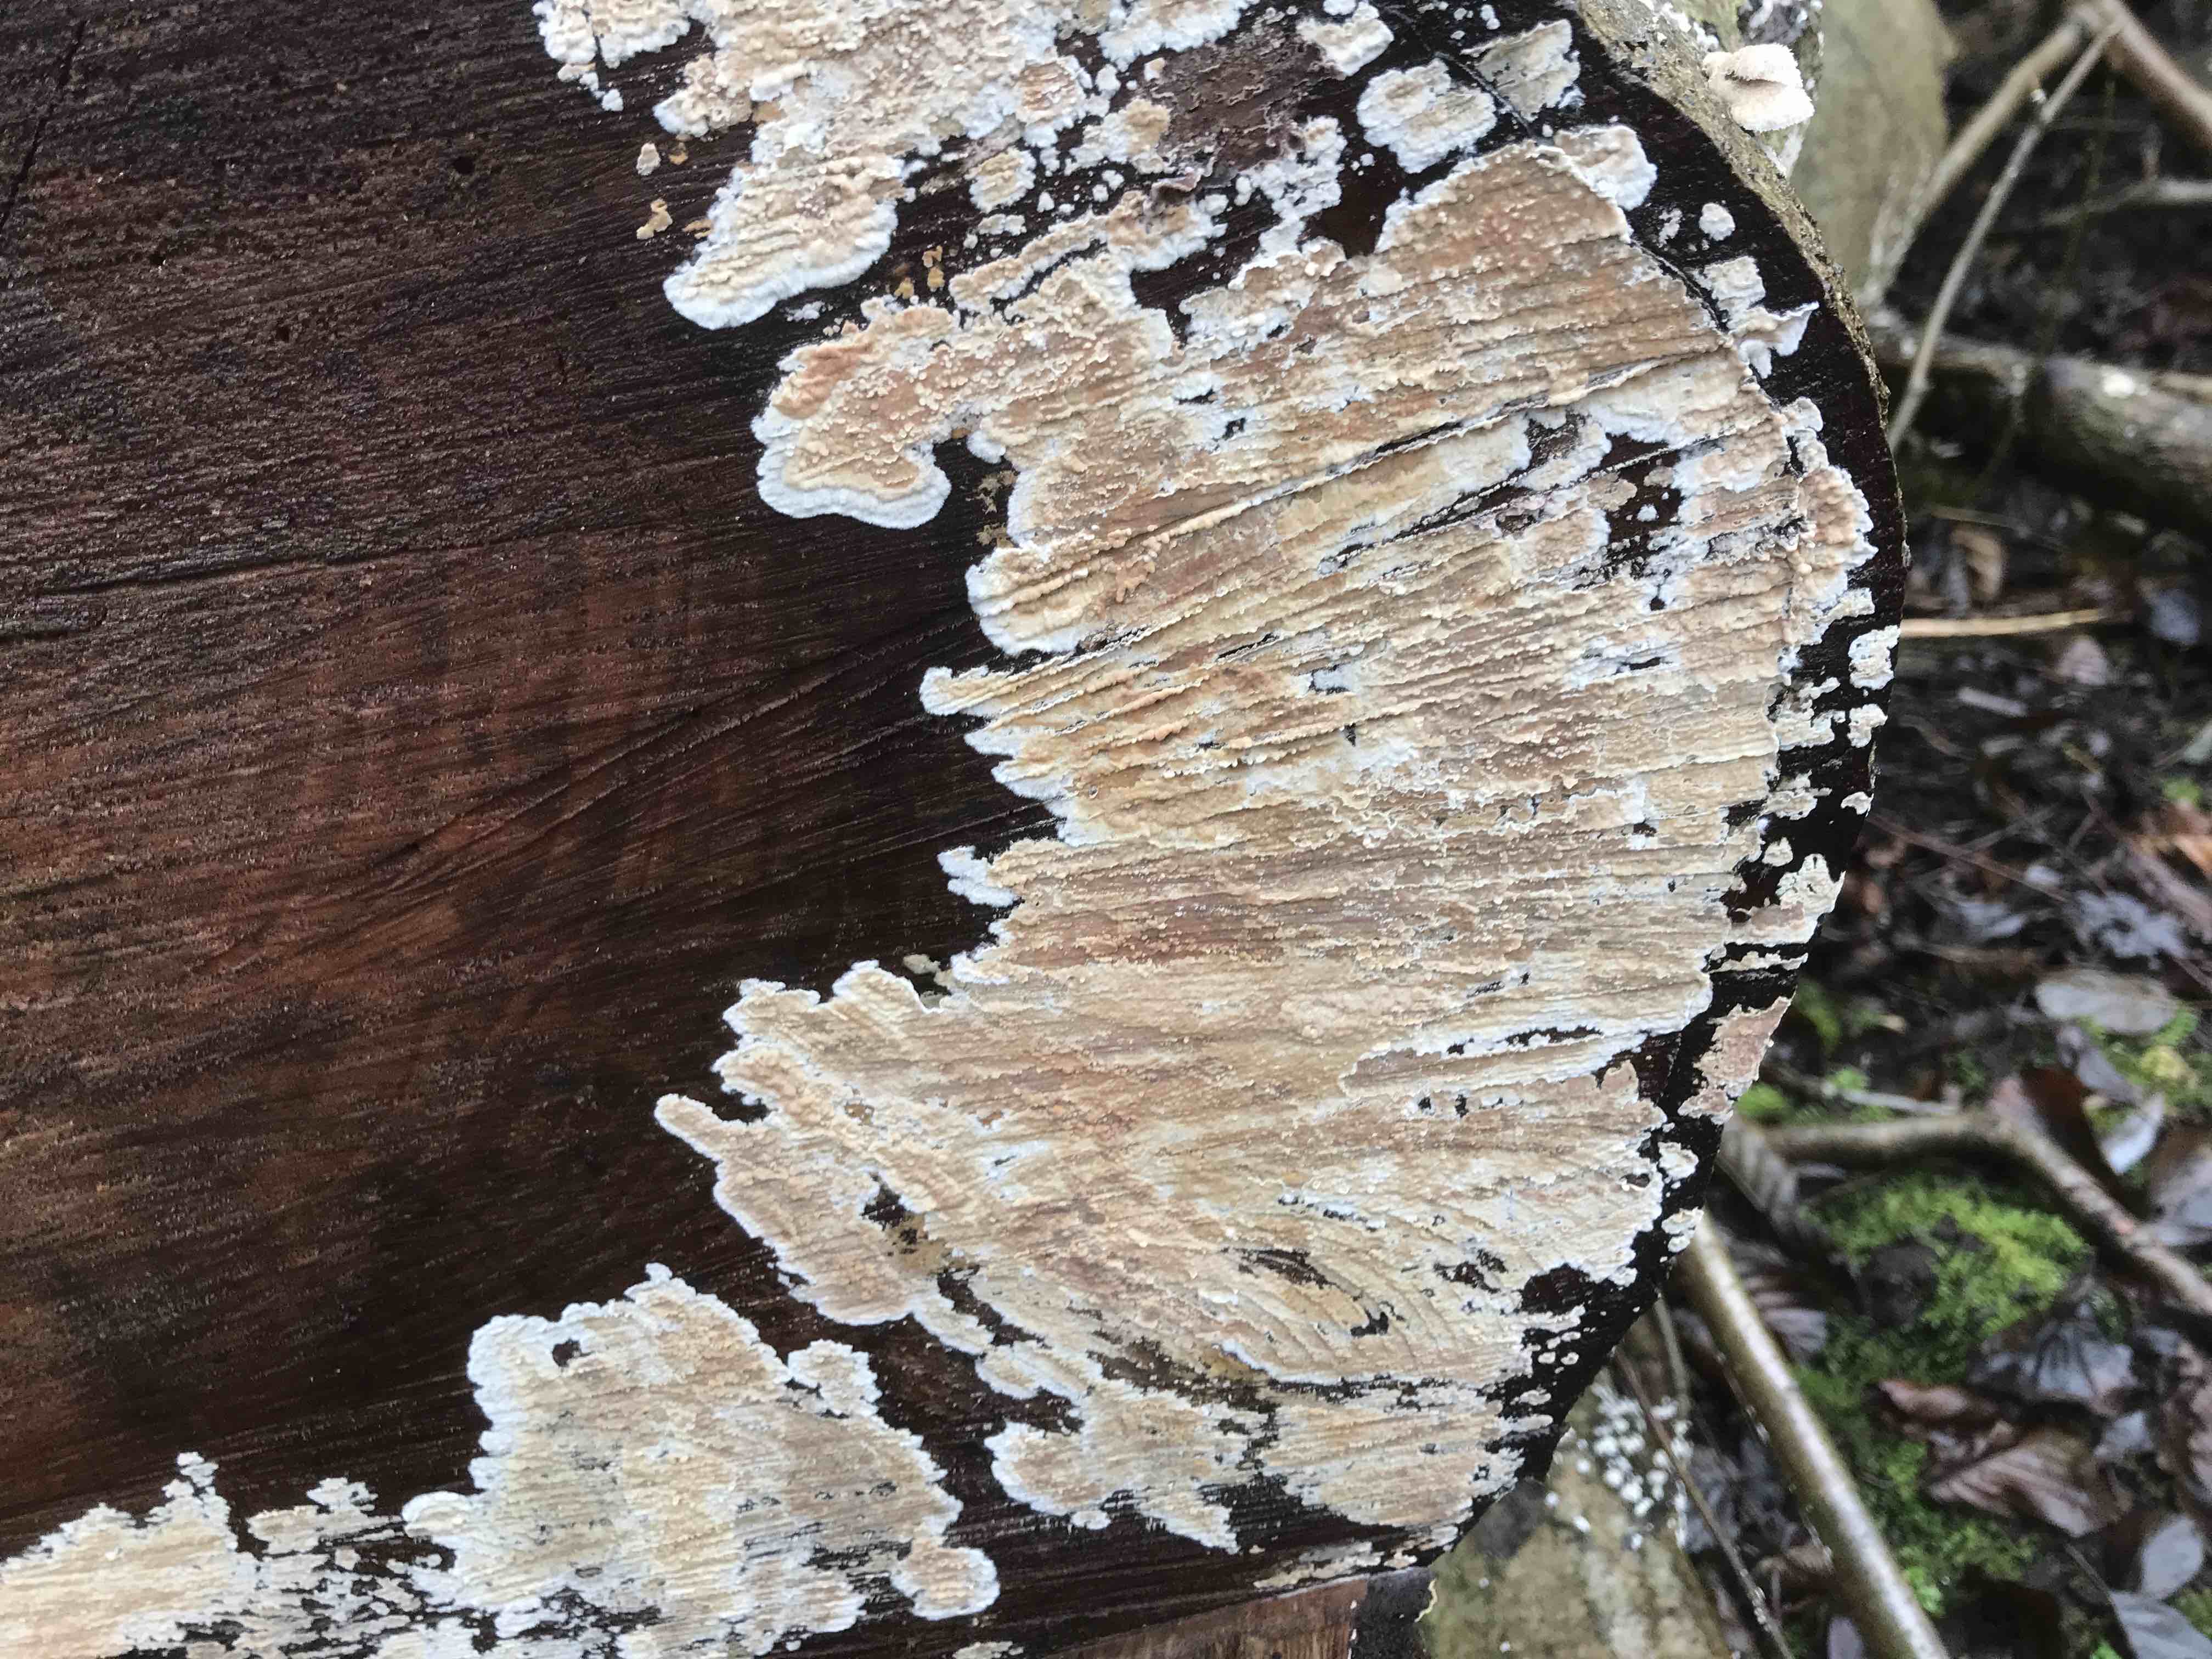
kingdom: Fungi
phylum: Basidiomycota
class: Agaricomycetes
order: Agaricales
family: Physalacriaceae
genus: Cylindrobasidium
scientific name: Cylindrobasidium evolvens
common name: sprækkehinde
